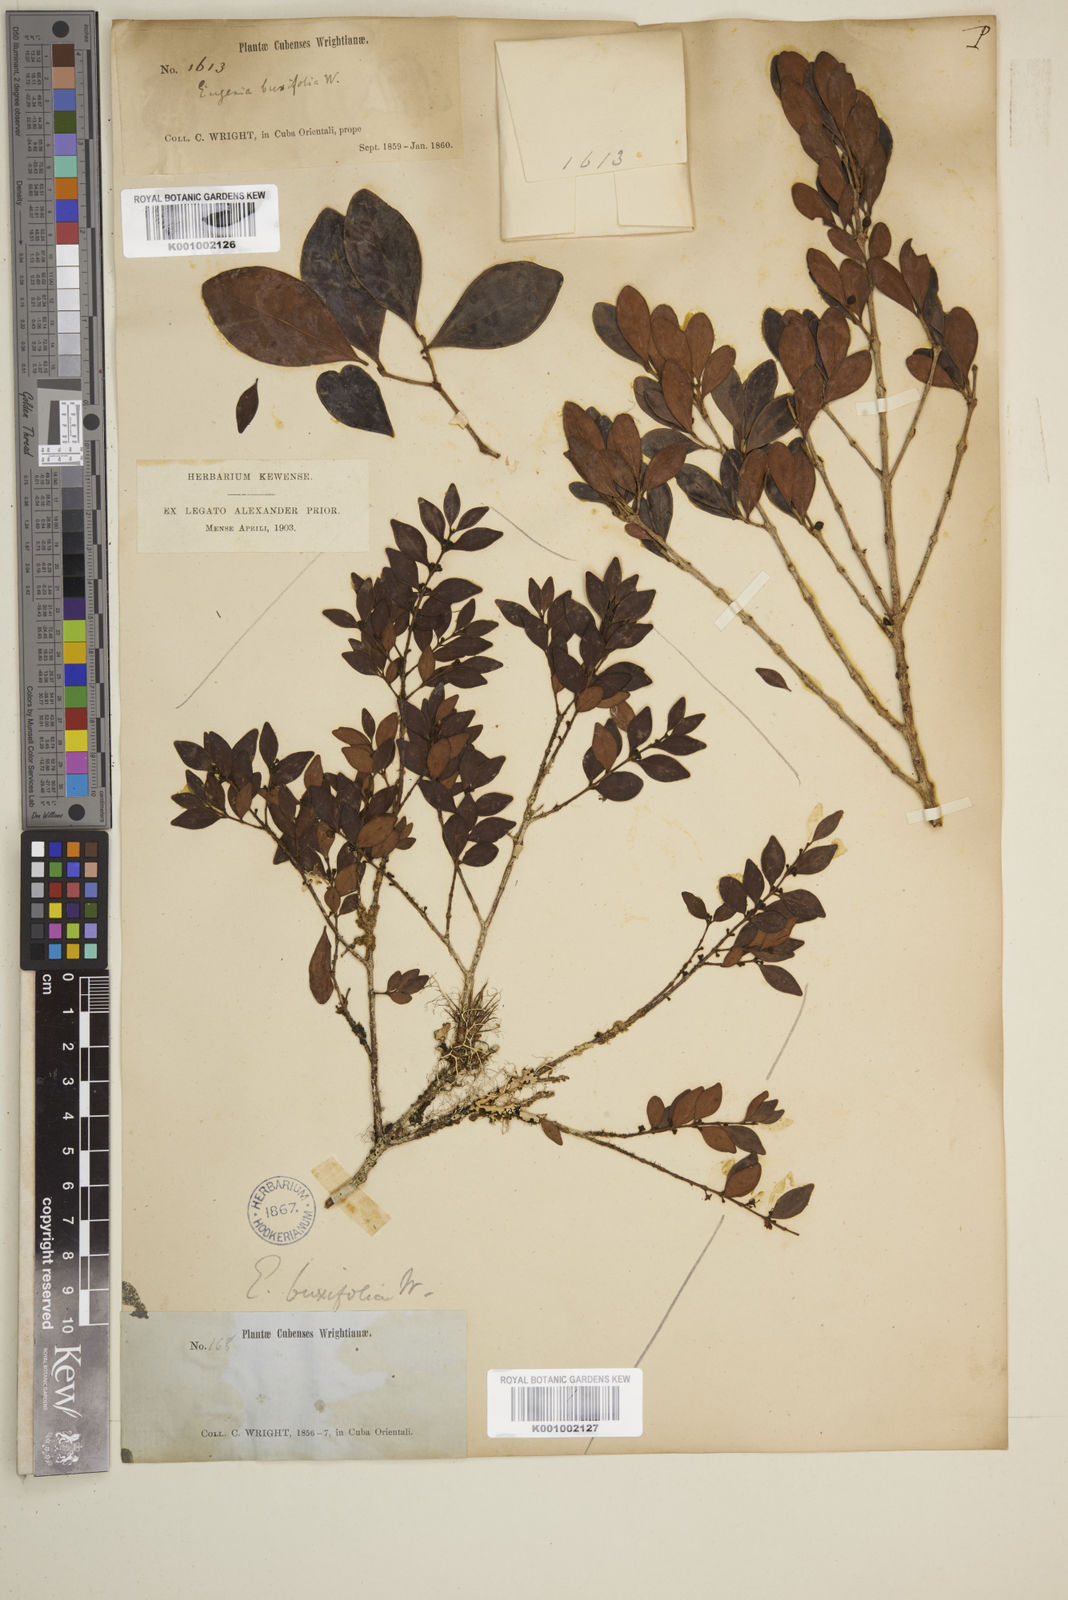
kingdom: Plantae
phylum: Tracheophyta
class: Magnoliopsida
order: Myrtales
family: Myrtaceae
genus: Eugenia
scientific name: Eugenia monticola
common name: Birds berry
